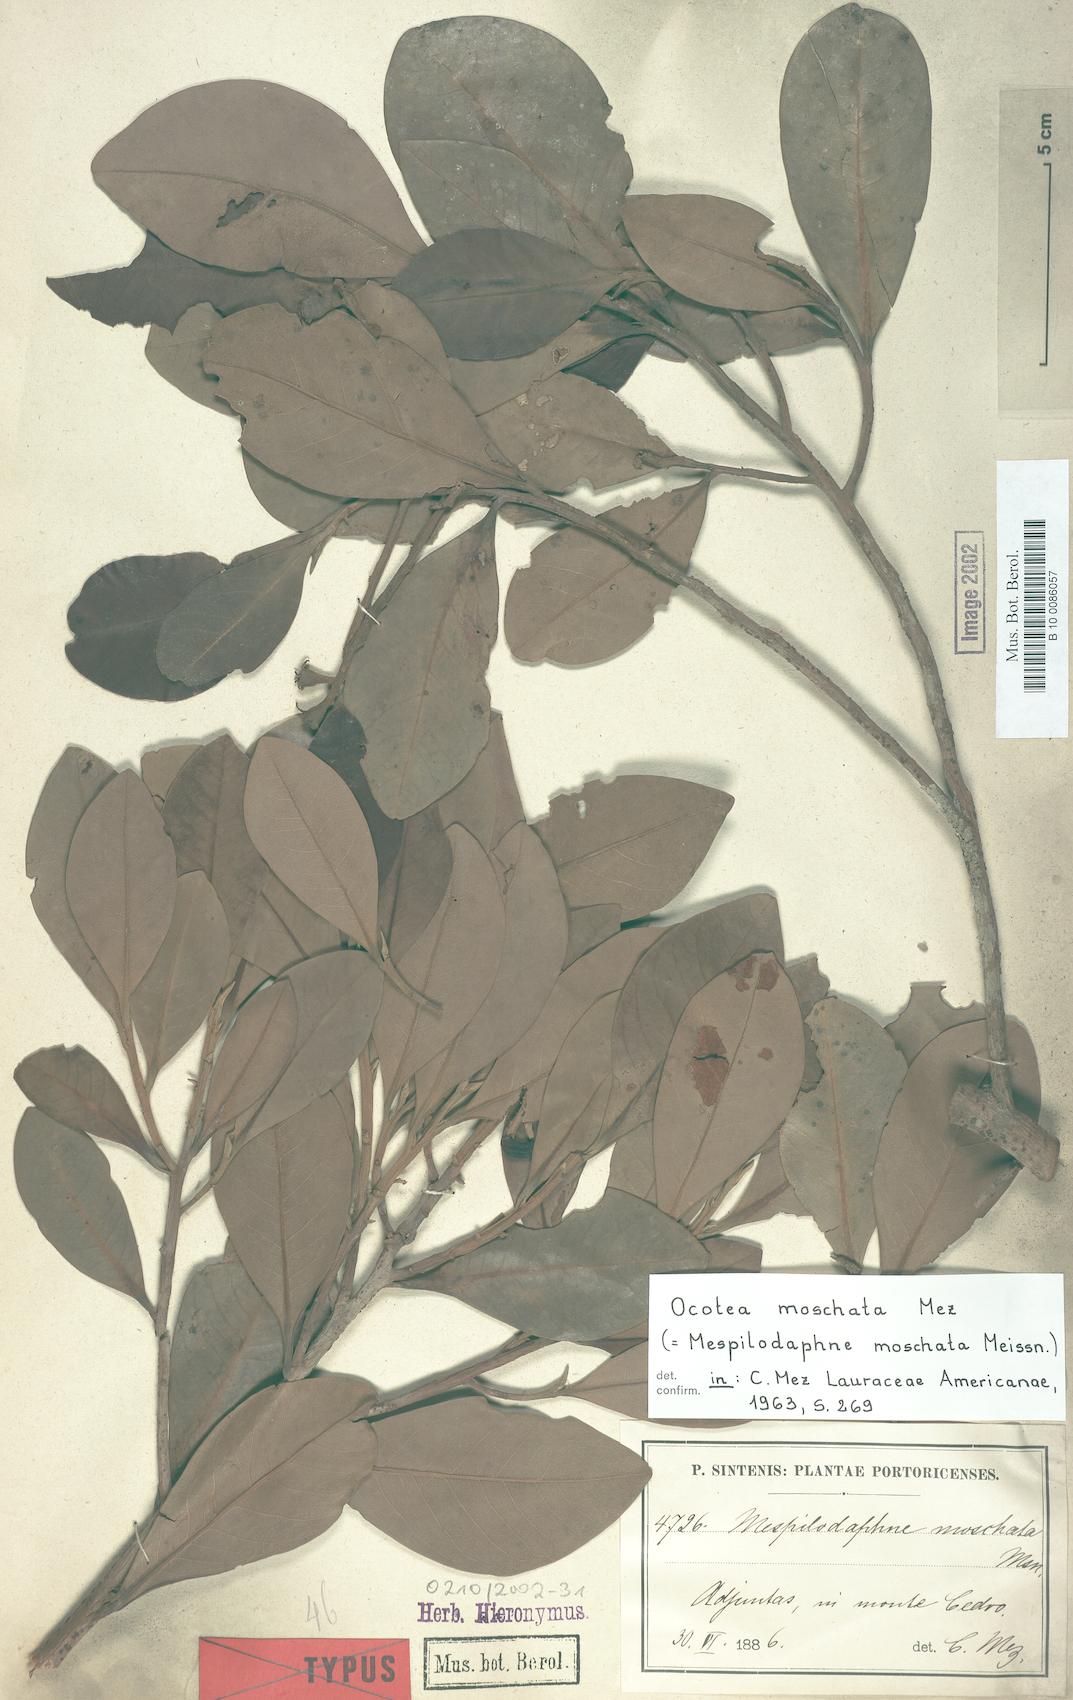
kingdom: Plantae
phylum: Tracheophyta
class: Magnoliopsida
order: Laurales
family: Lauraceae
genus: Mespilodaphne
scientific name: Mespilodaphne moschata
